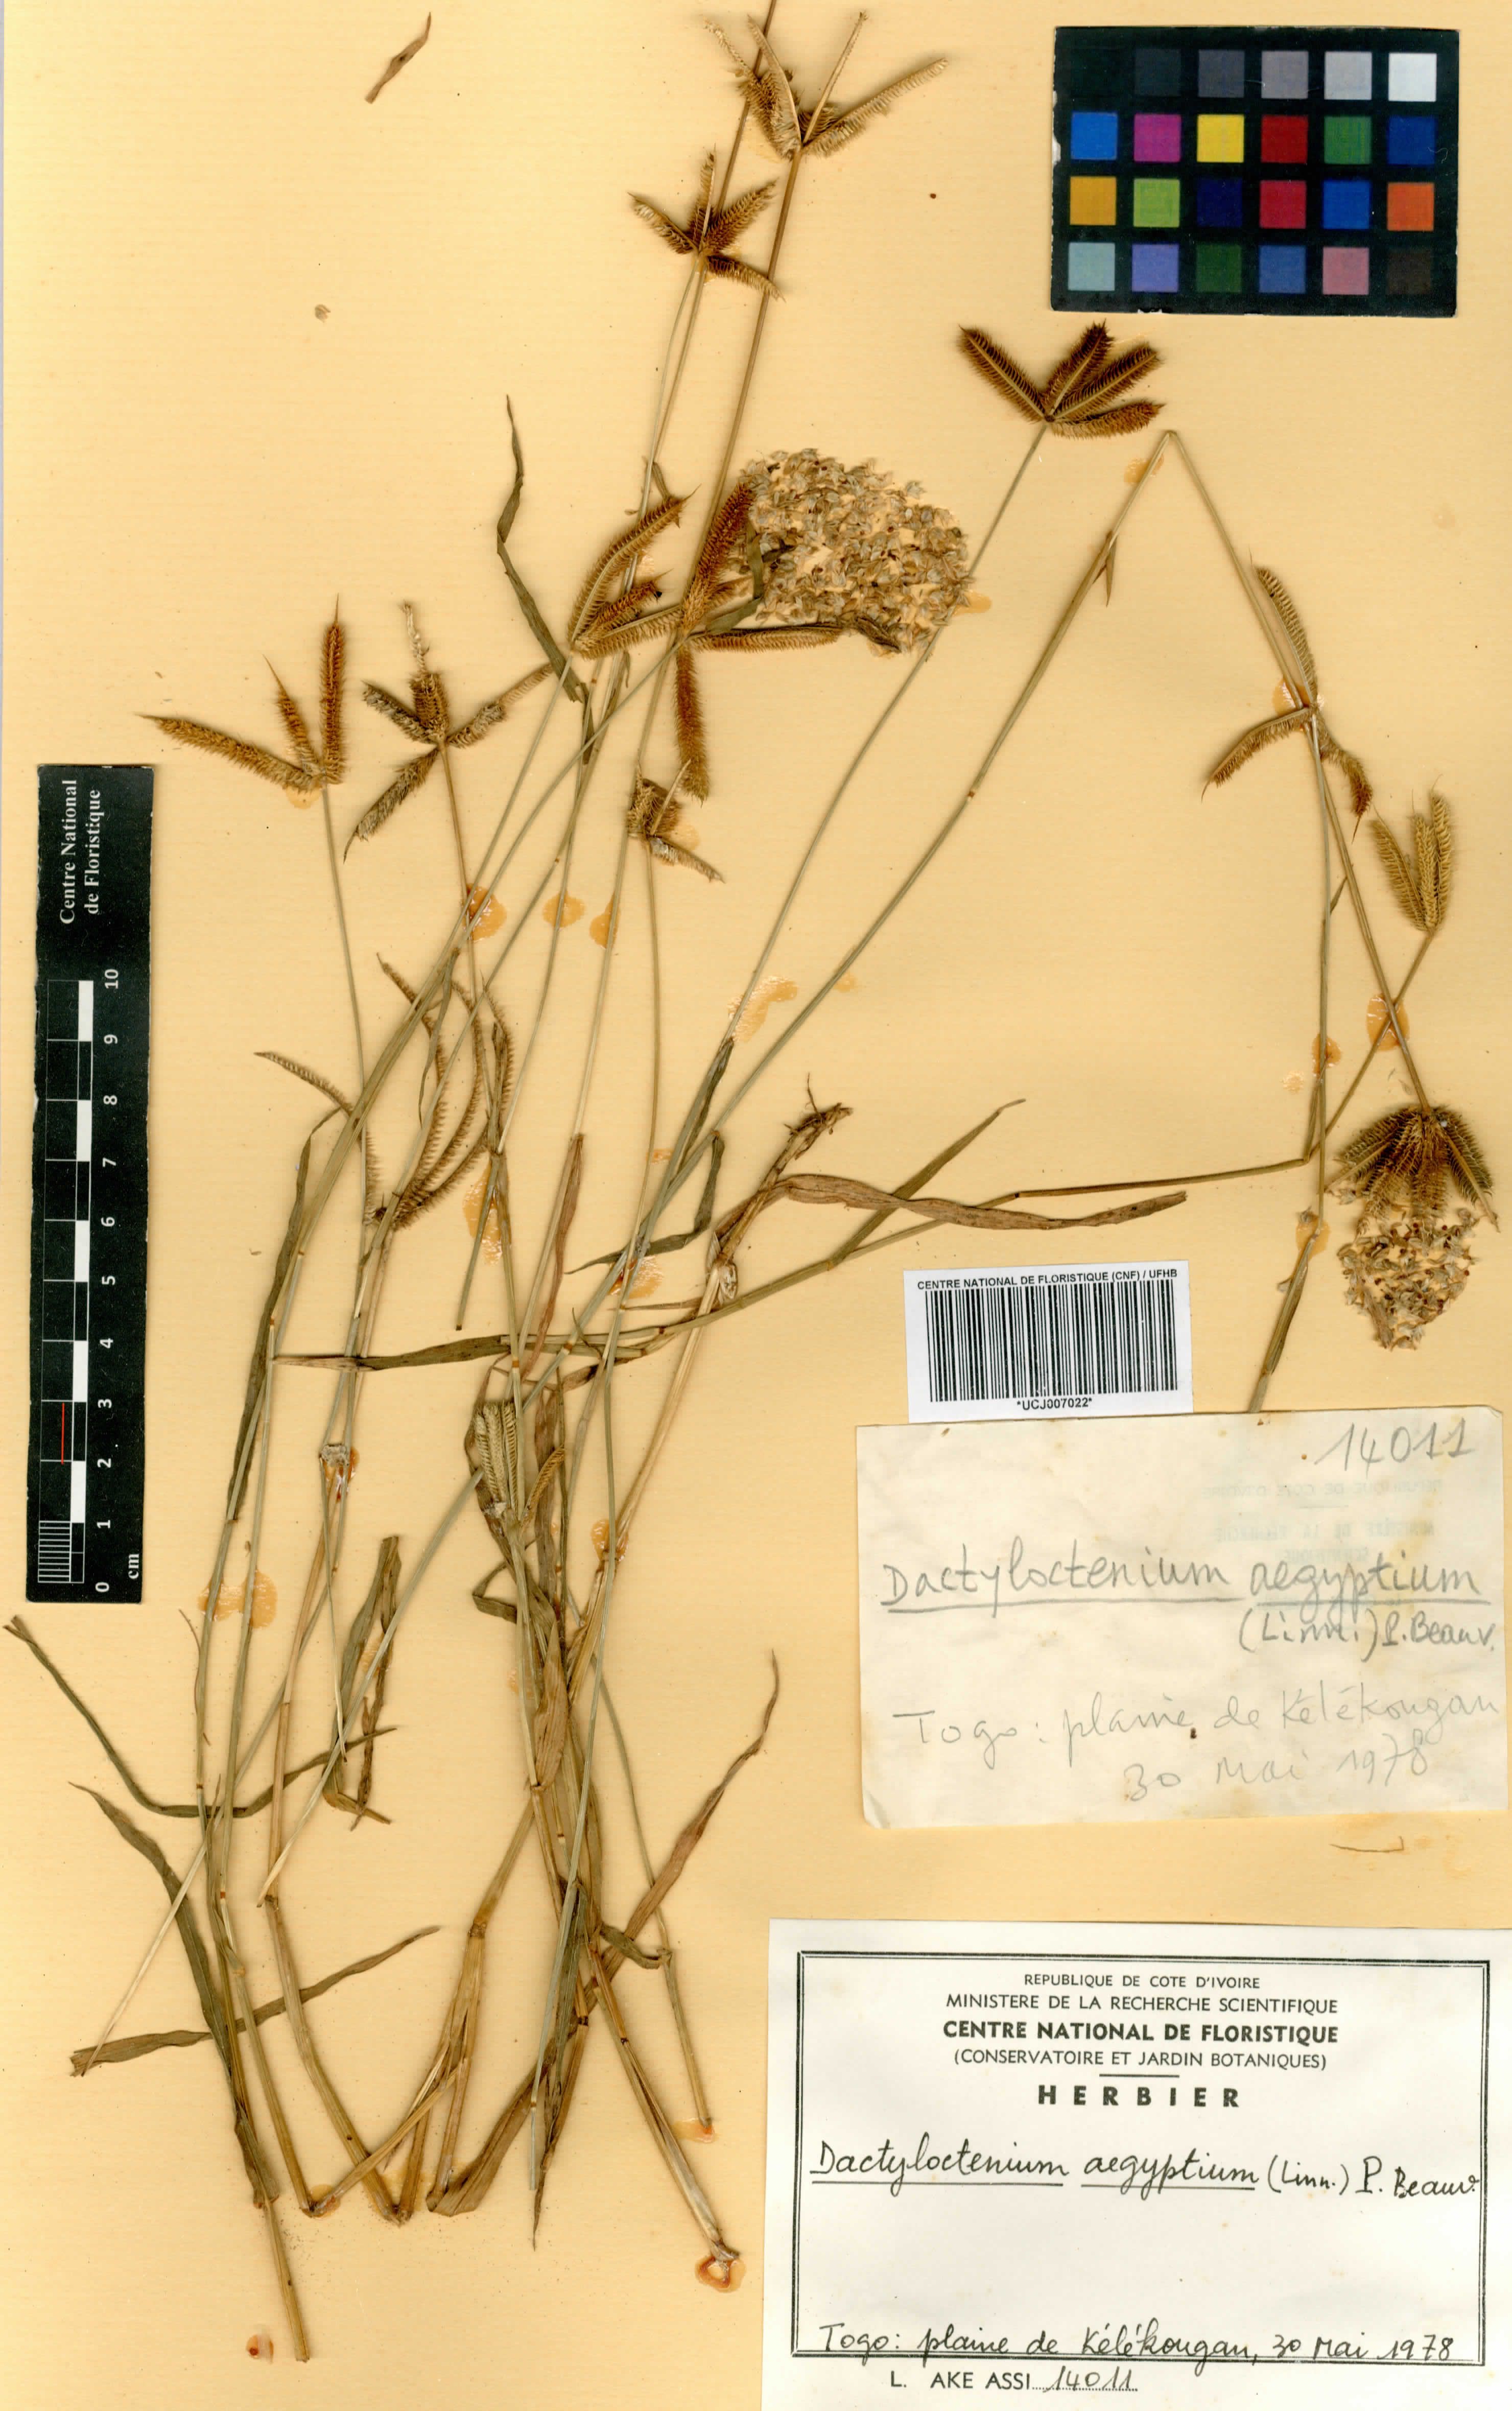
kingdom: Plantae
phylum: Tracheophyta
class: Liliopsida
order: Poales
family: Poaceae
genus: Dactyloctenium
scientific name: Dactyloctenium aegyptium
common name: Egyptian grass
